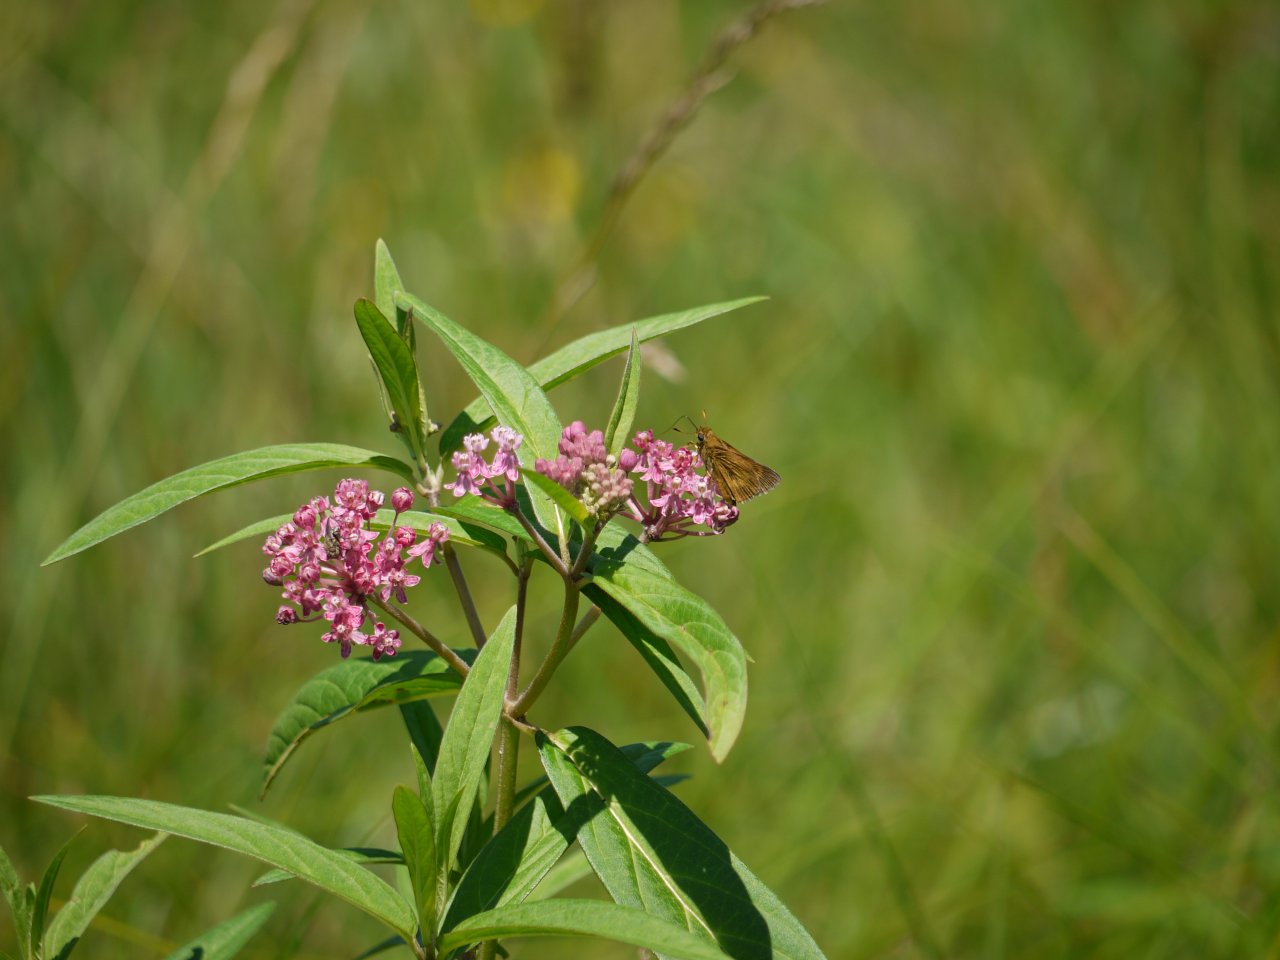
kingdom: Animalia
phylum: Arthropoda
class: Insecta
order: Lepidoptera
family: Hesperiidae
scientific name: Hesperiidae
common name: Skippers
